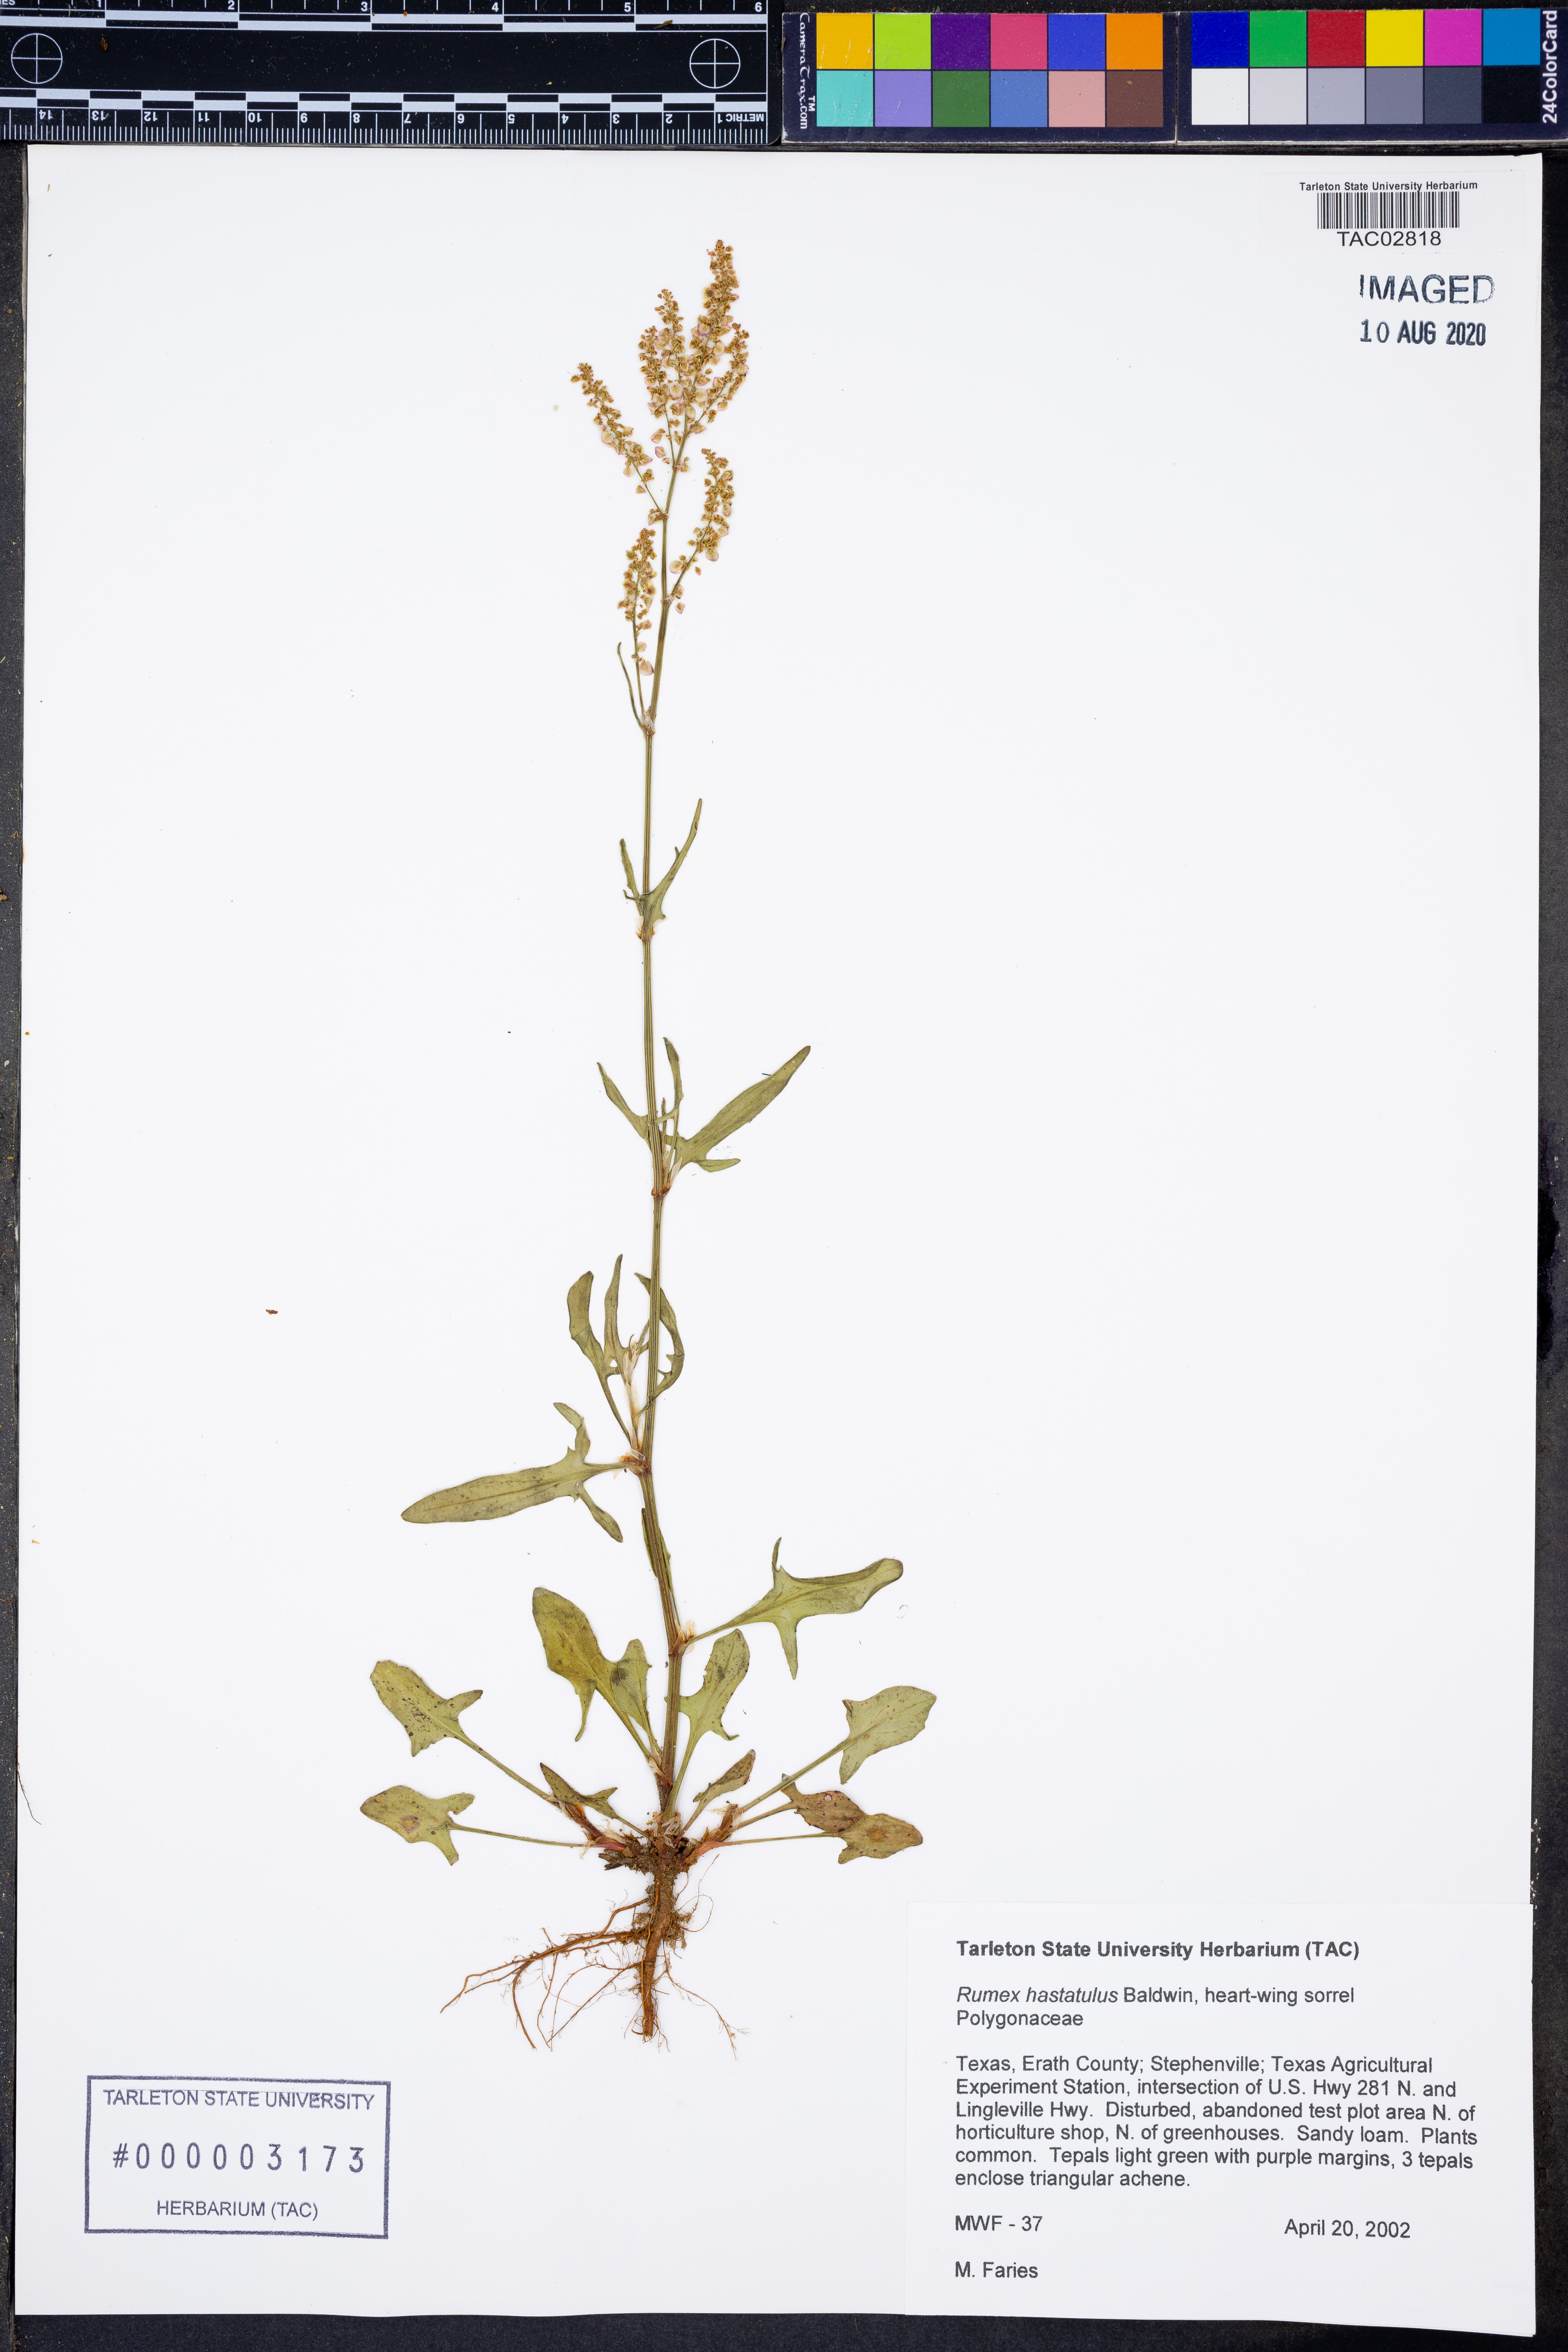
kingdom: Plantae
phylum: Tracheophyta
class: Magnoliopsida
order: Caryophyllales
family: Polygonaceae
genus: Rumex
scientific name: Rumex hastatulus
